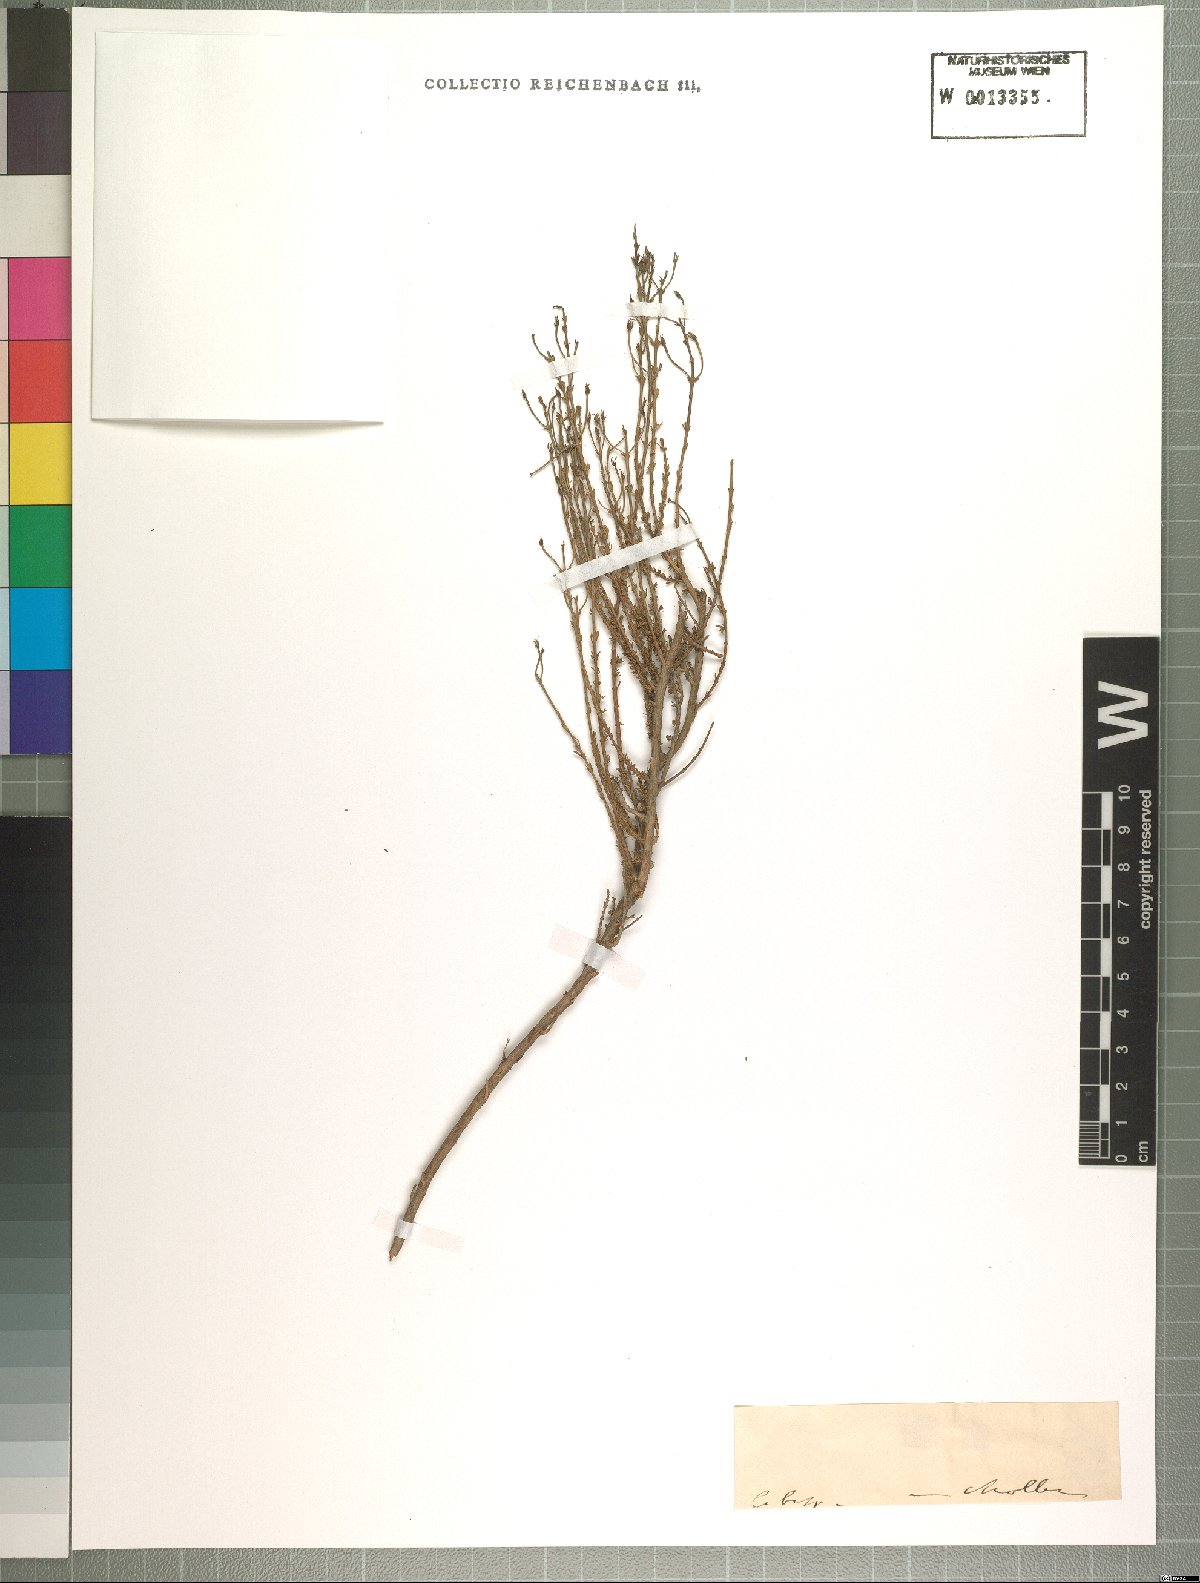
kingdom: Plantae
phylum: Tracheophyta
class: Magnoliopsida
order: Lamiales
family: Scrophulariaceae
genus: Jamesbrittenia
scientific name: Jamesbrittenia foliolosa
